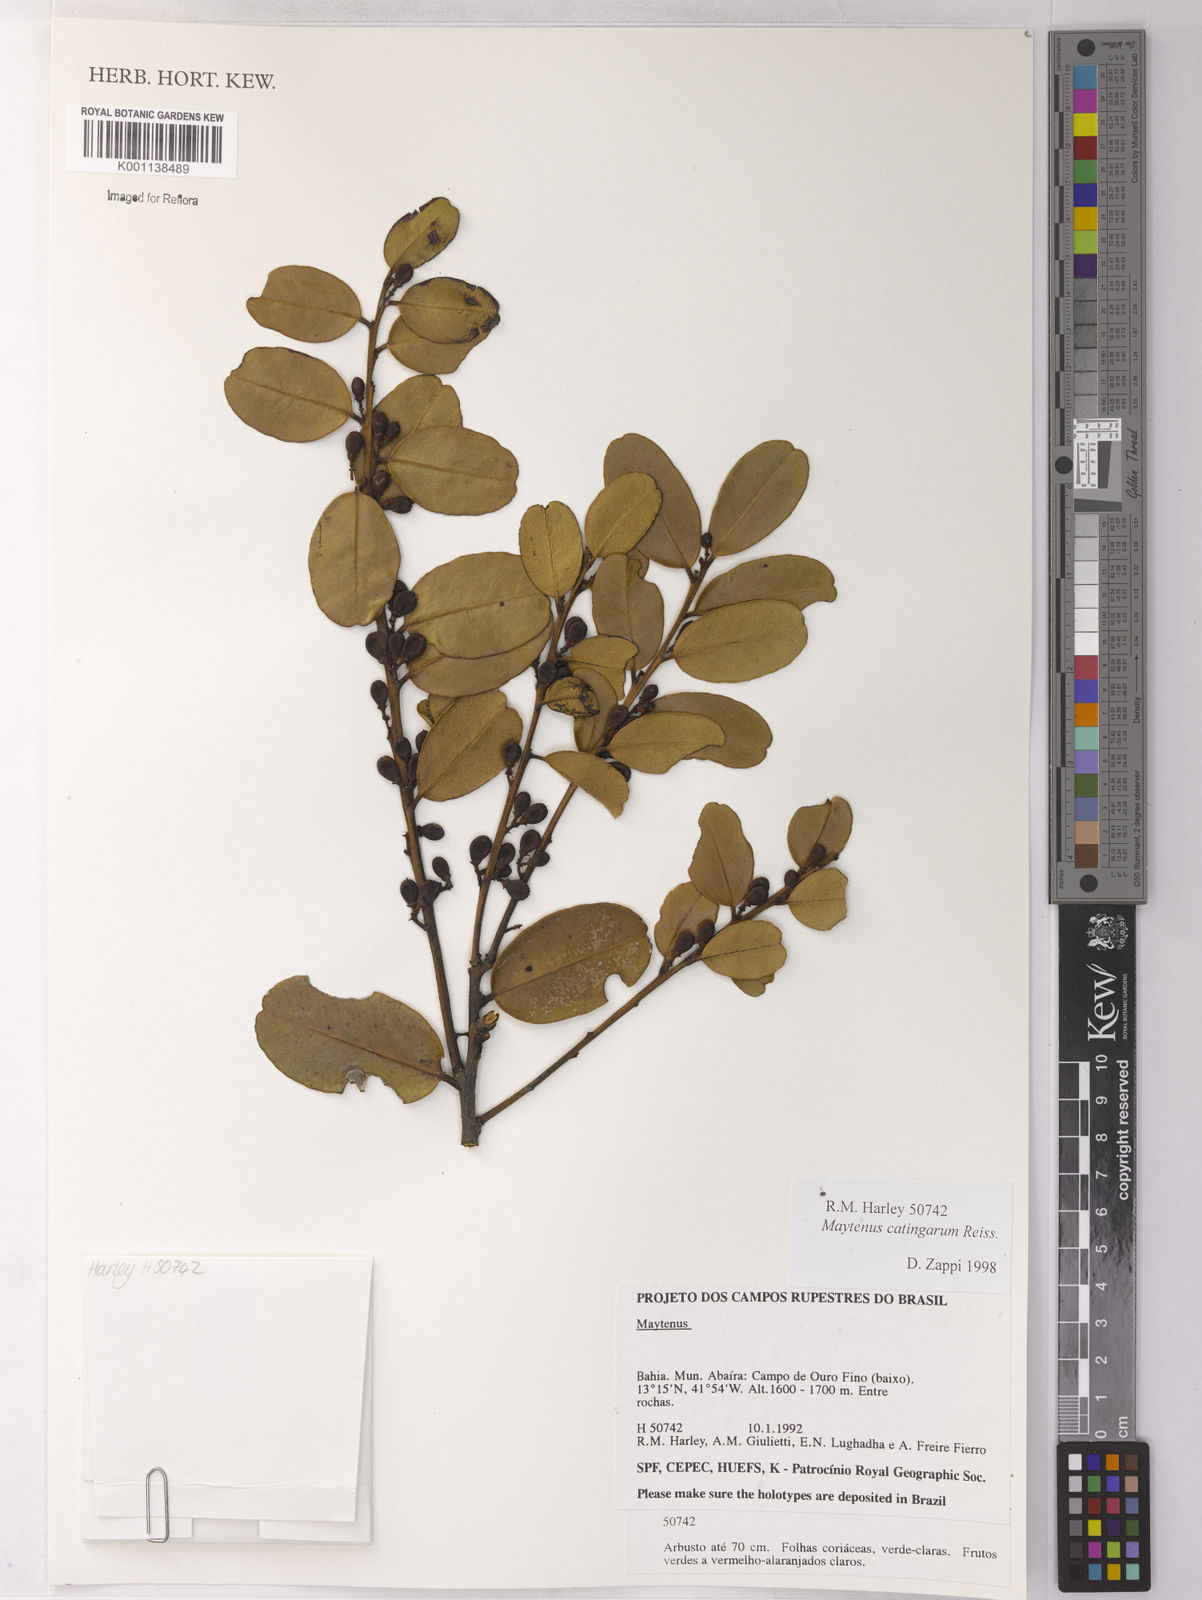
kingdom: Plantae
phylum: Tracheophyta
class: Magnoliopsida
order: Celastrales
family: Celastraceae
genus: Monteverdia
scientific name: Monteverdia catingarum
